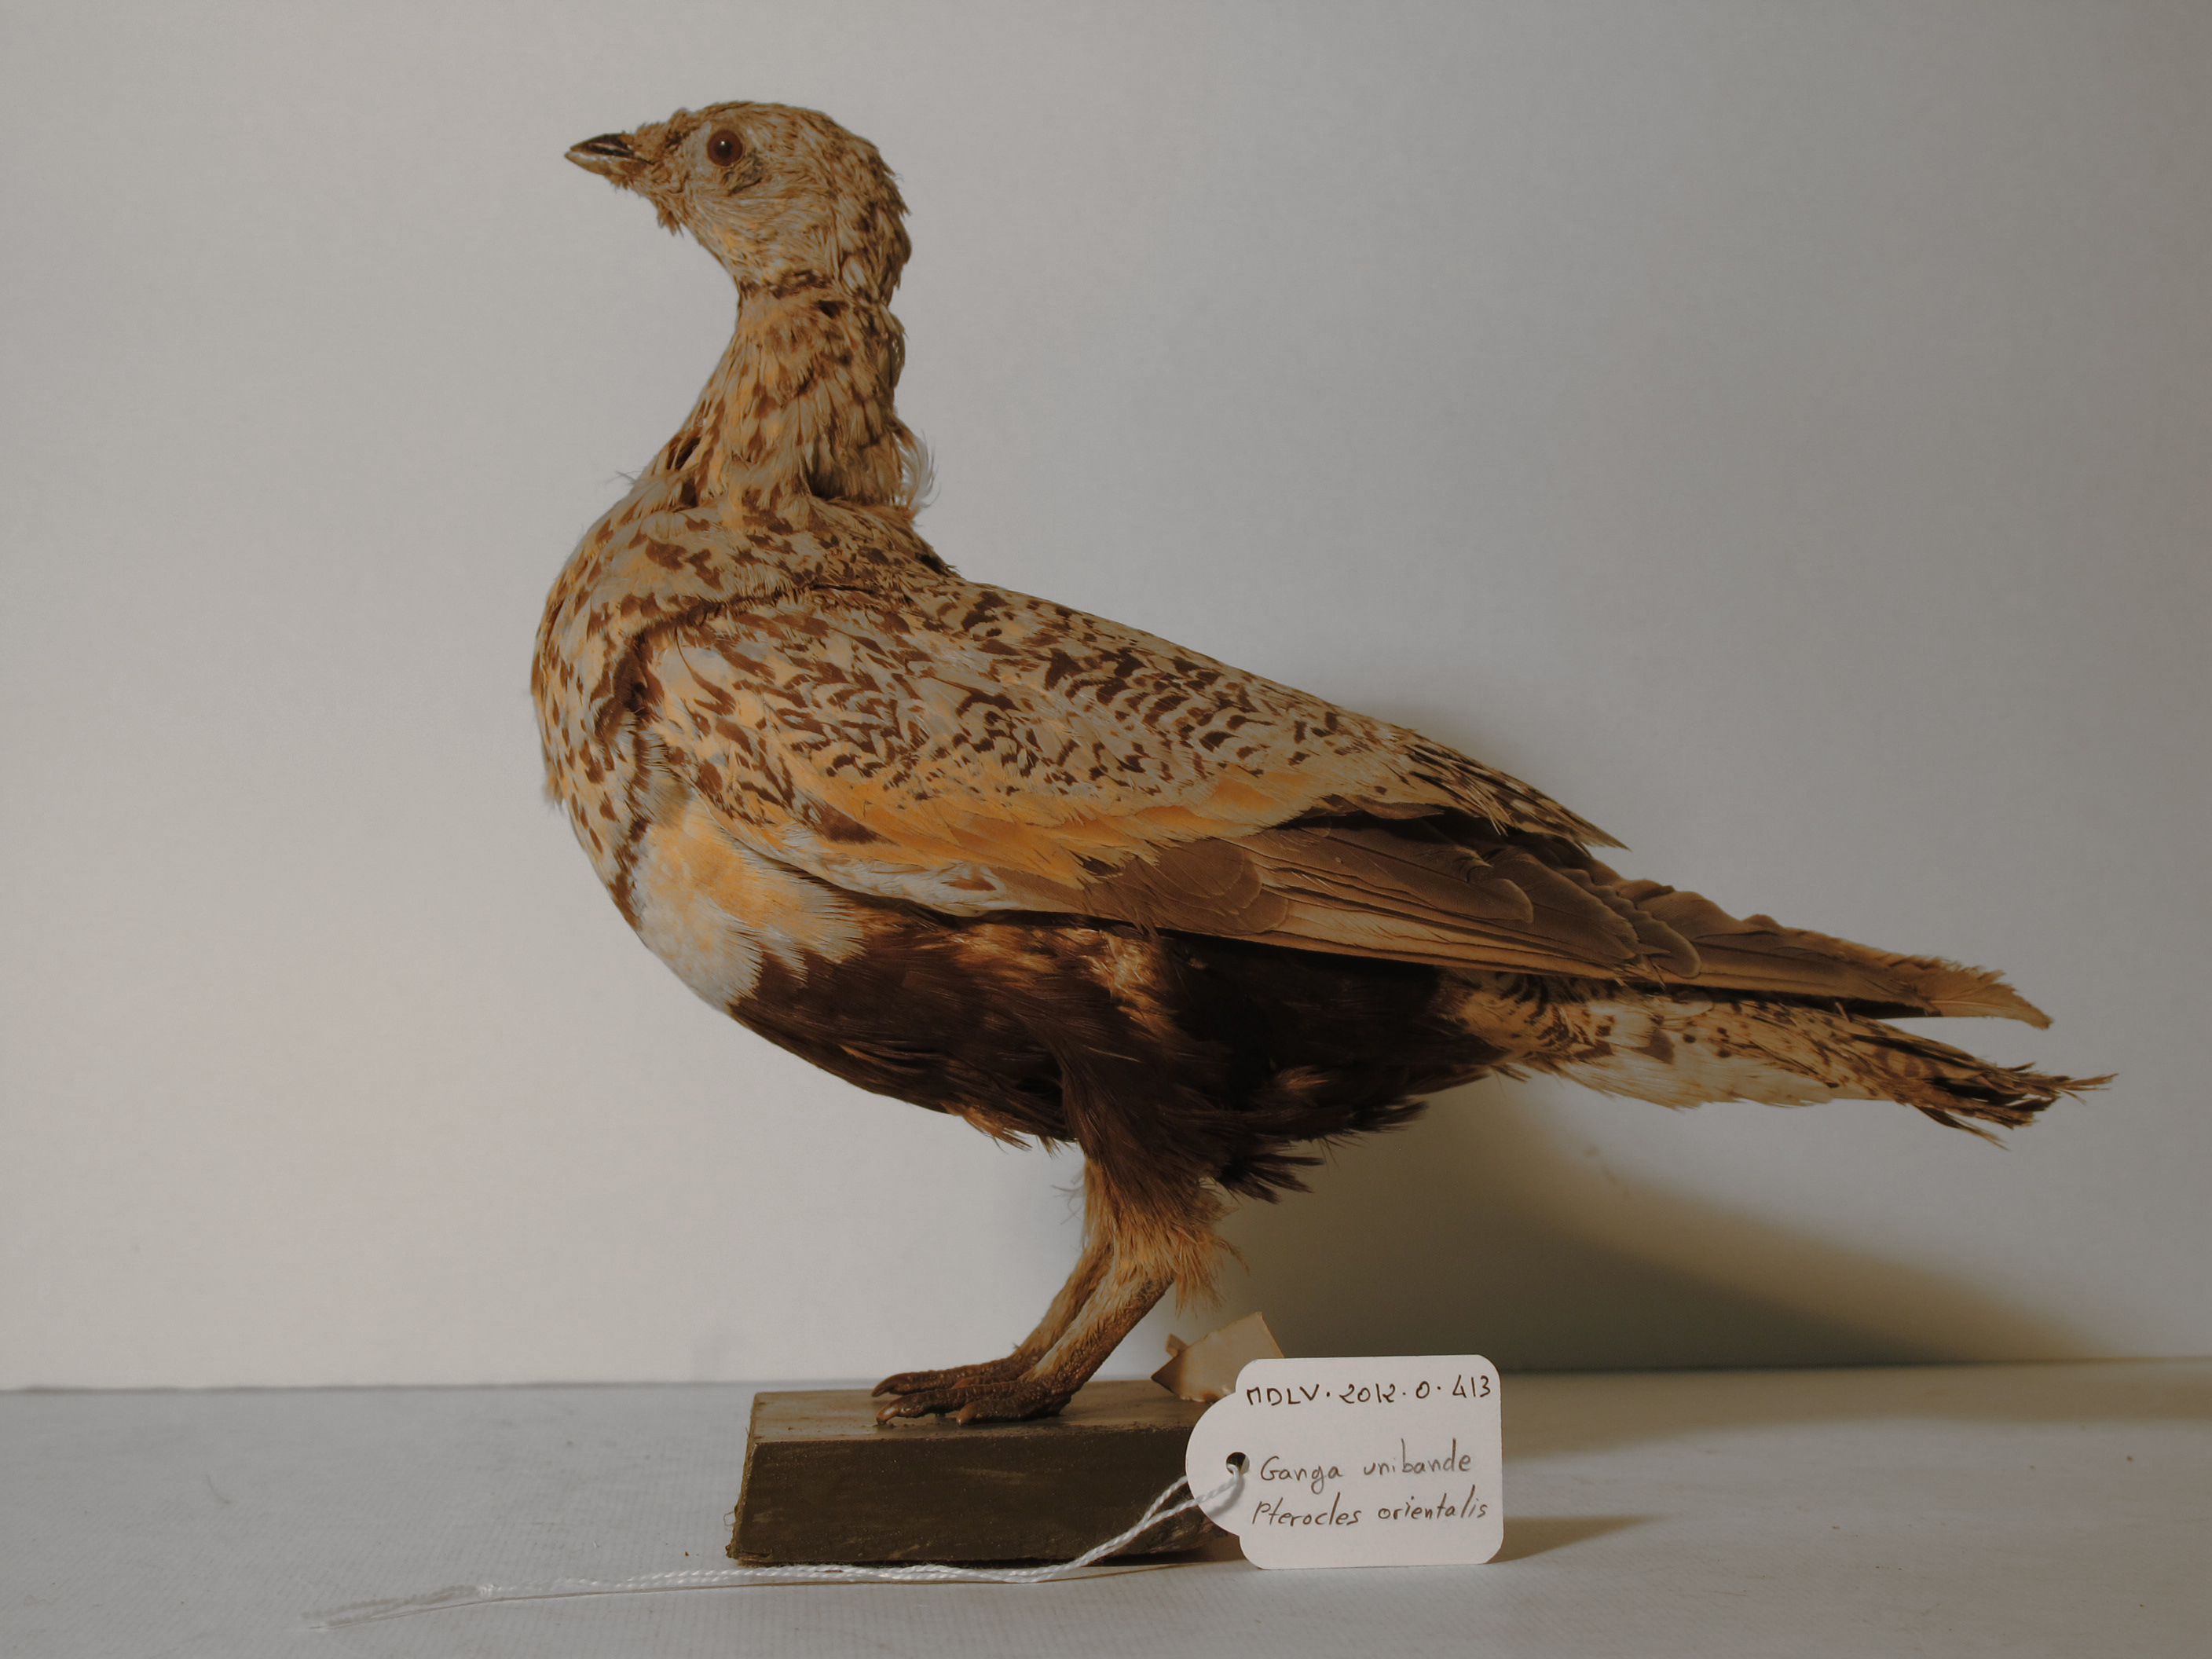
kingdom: Animalia
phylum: Chordata
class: Aves
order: Pteroclidiformes
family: Pteroclididae
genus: Pterocles
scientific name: Pterocles orientalis
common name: Black-bellied Sandgrouse
